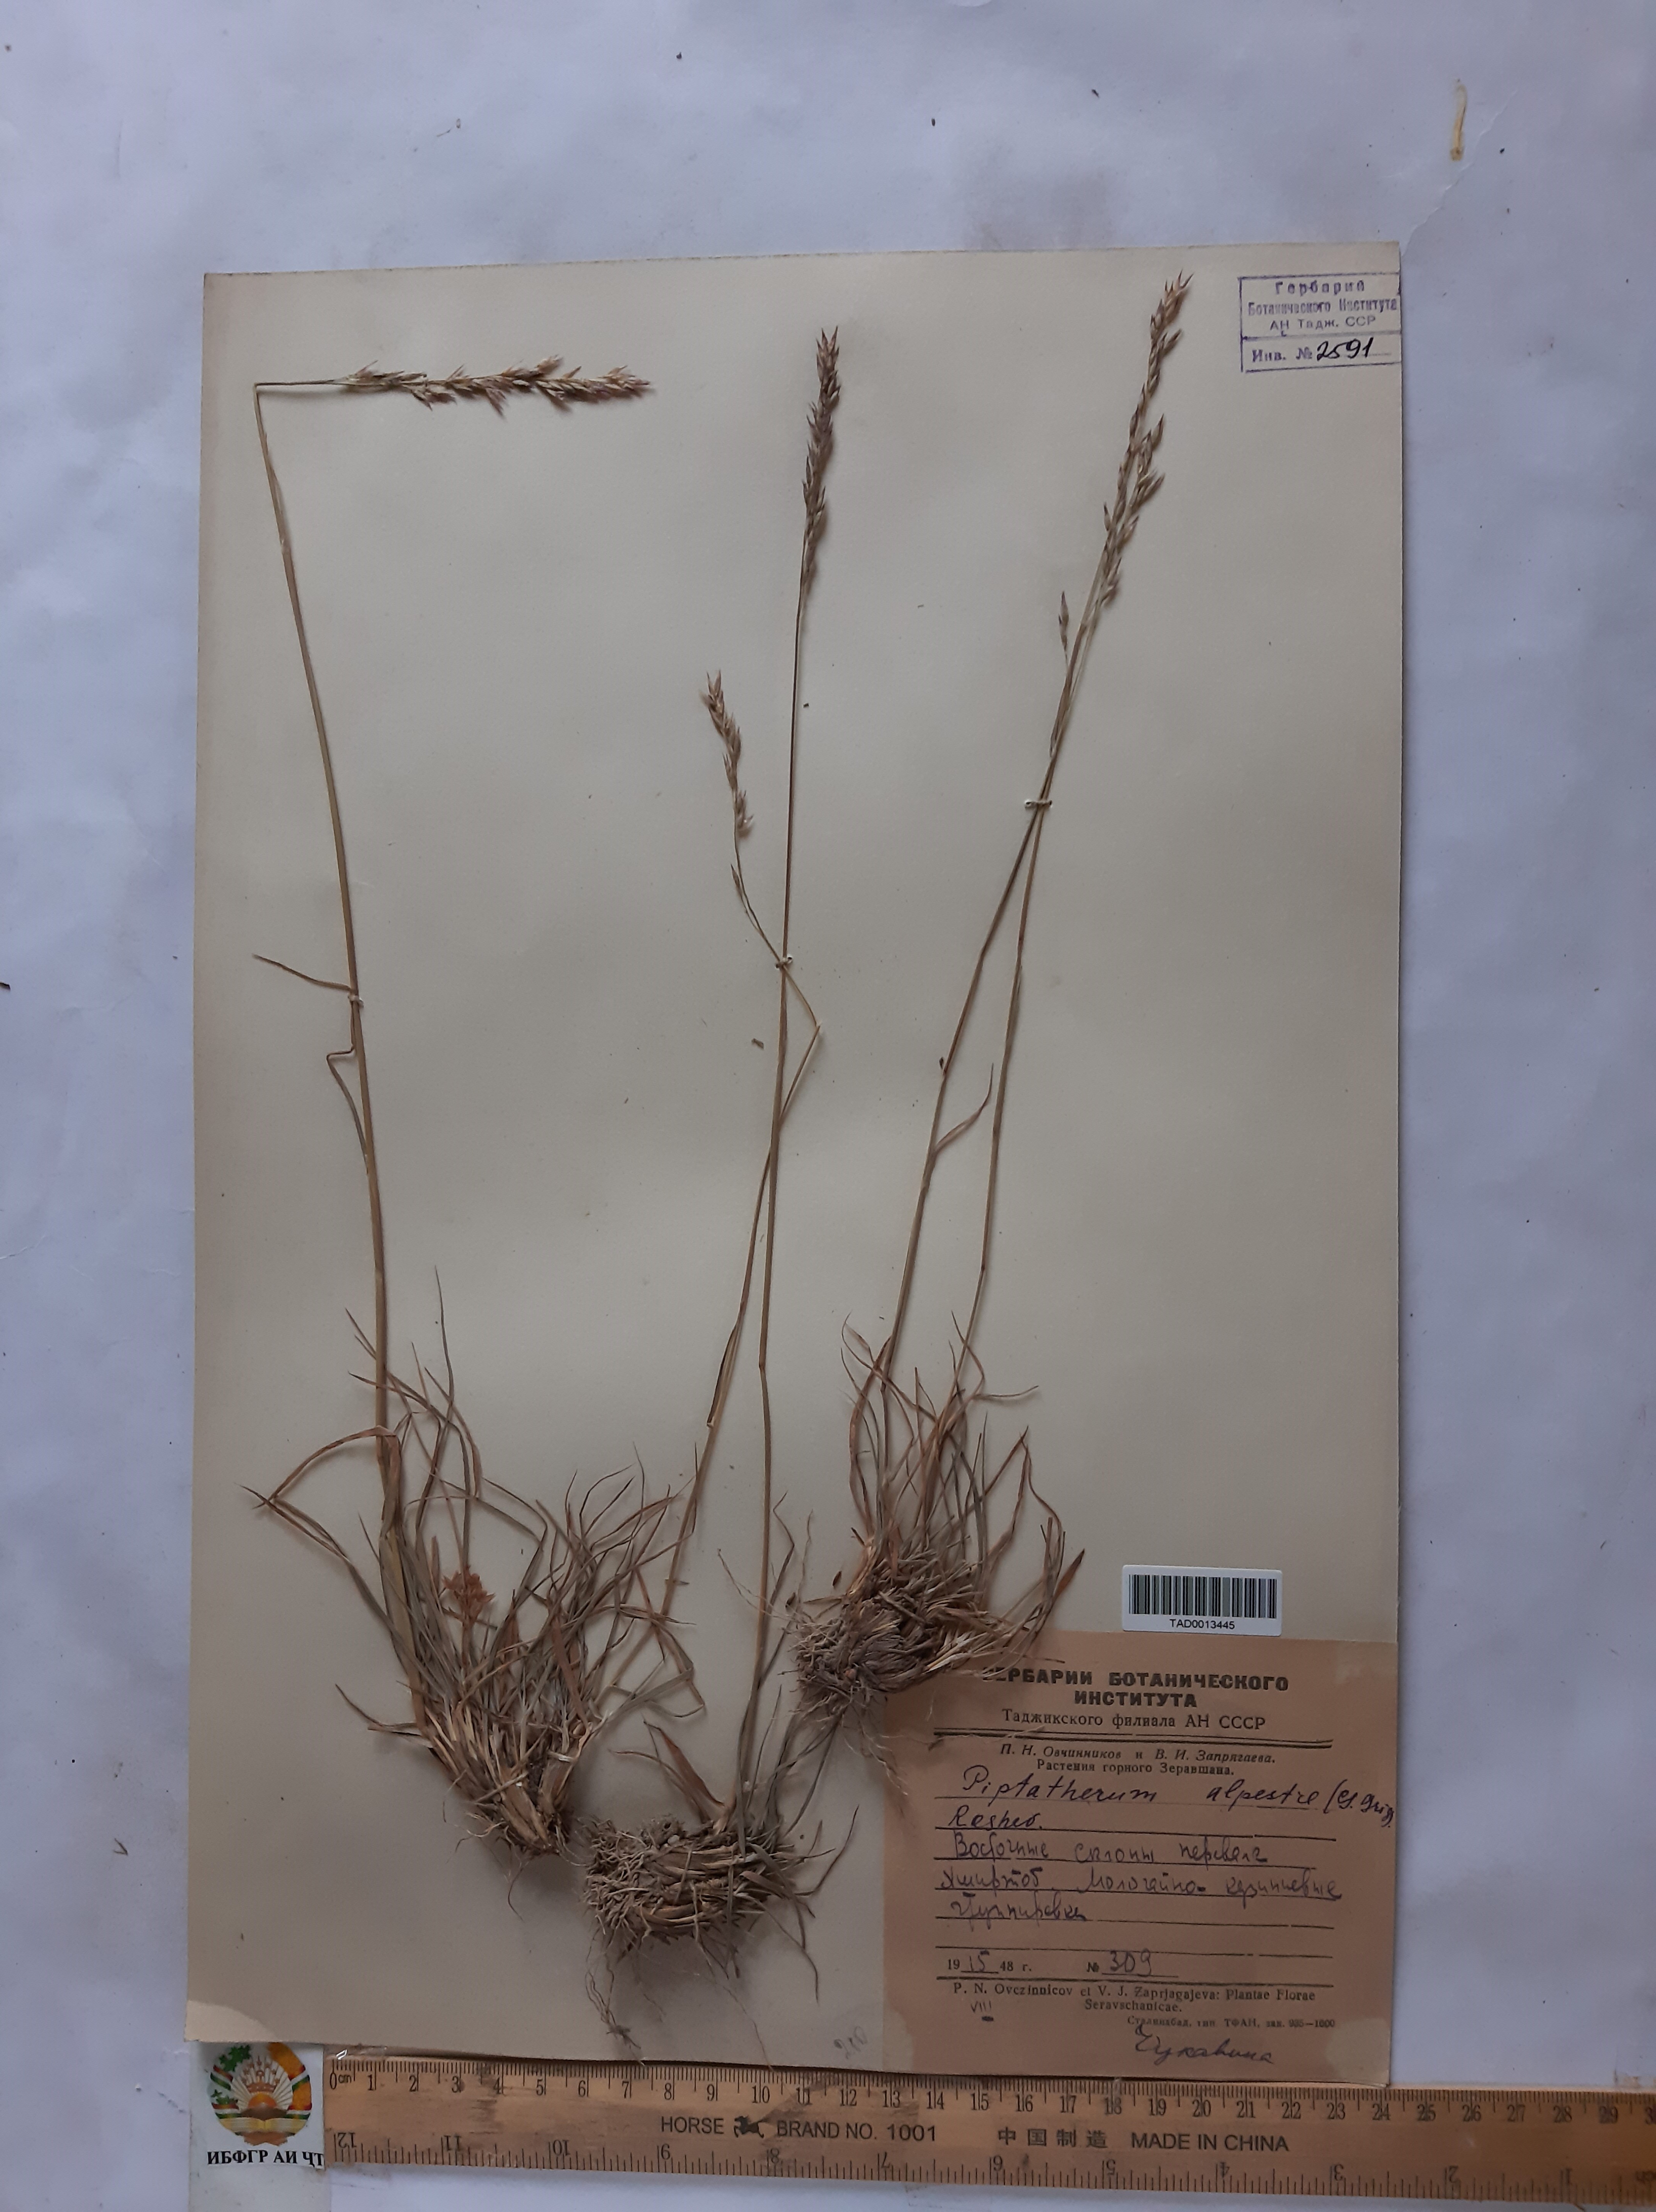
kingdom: Plantae
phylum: Tracheophyta
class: Liliopsida
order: Poales
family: Poaceae
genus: Piptatherum
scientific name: Piptatherum alpestre
